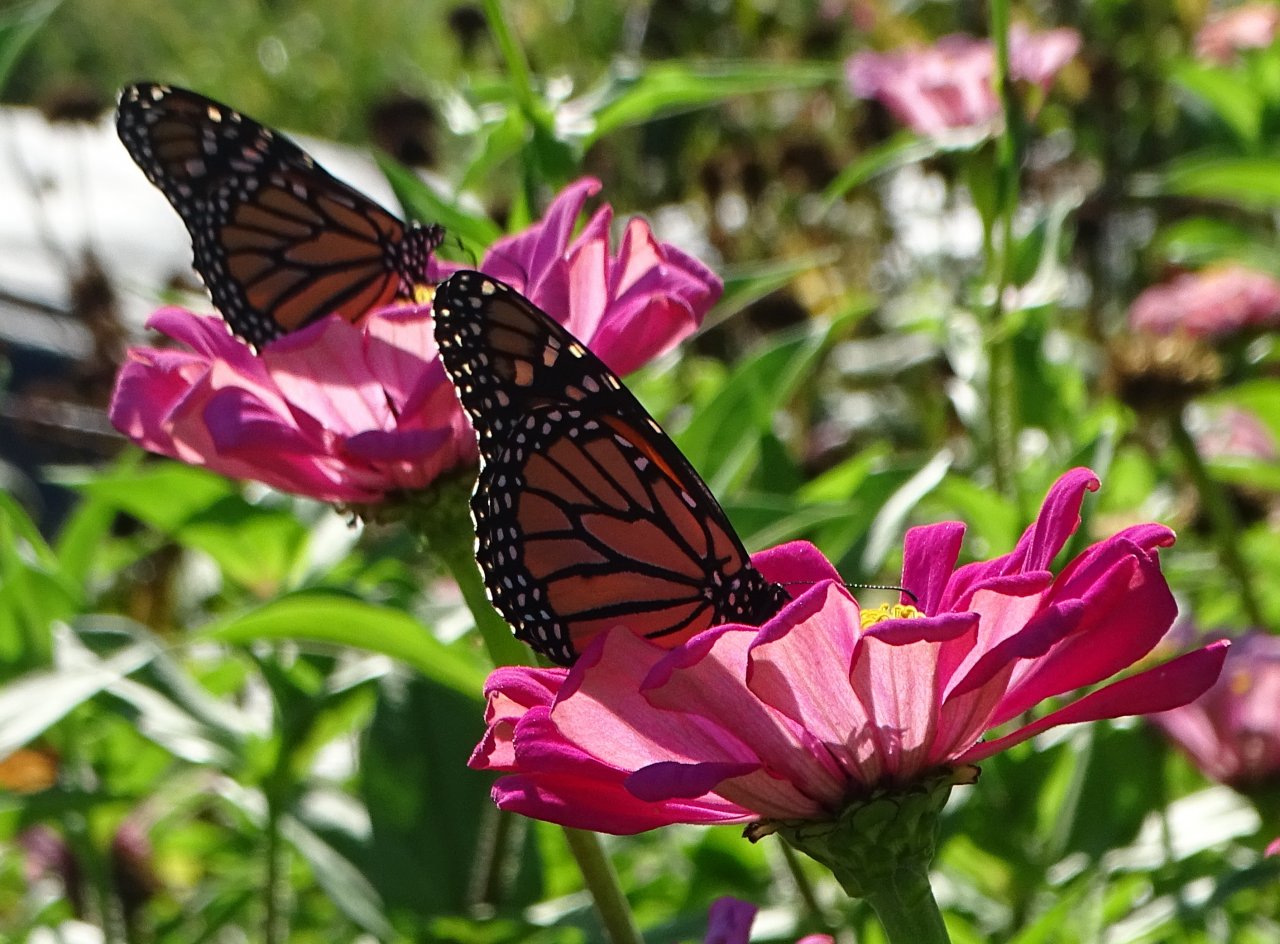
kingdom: Animalia
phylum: Arthropoda
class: Insecta
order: Lepidoptera
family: Nymphalidae
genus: Danaus
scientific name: Danaus plexippus
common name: Monarch
